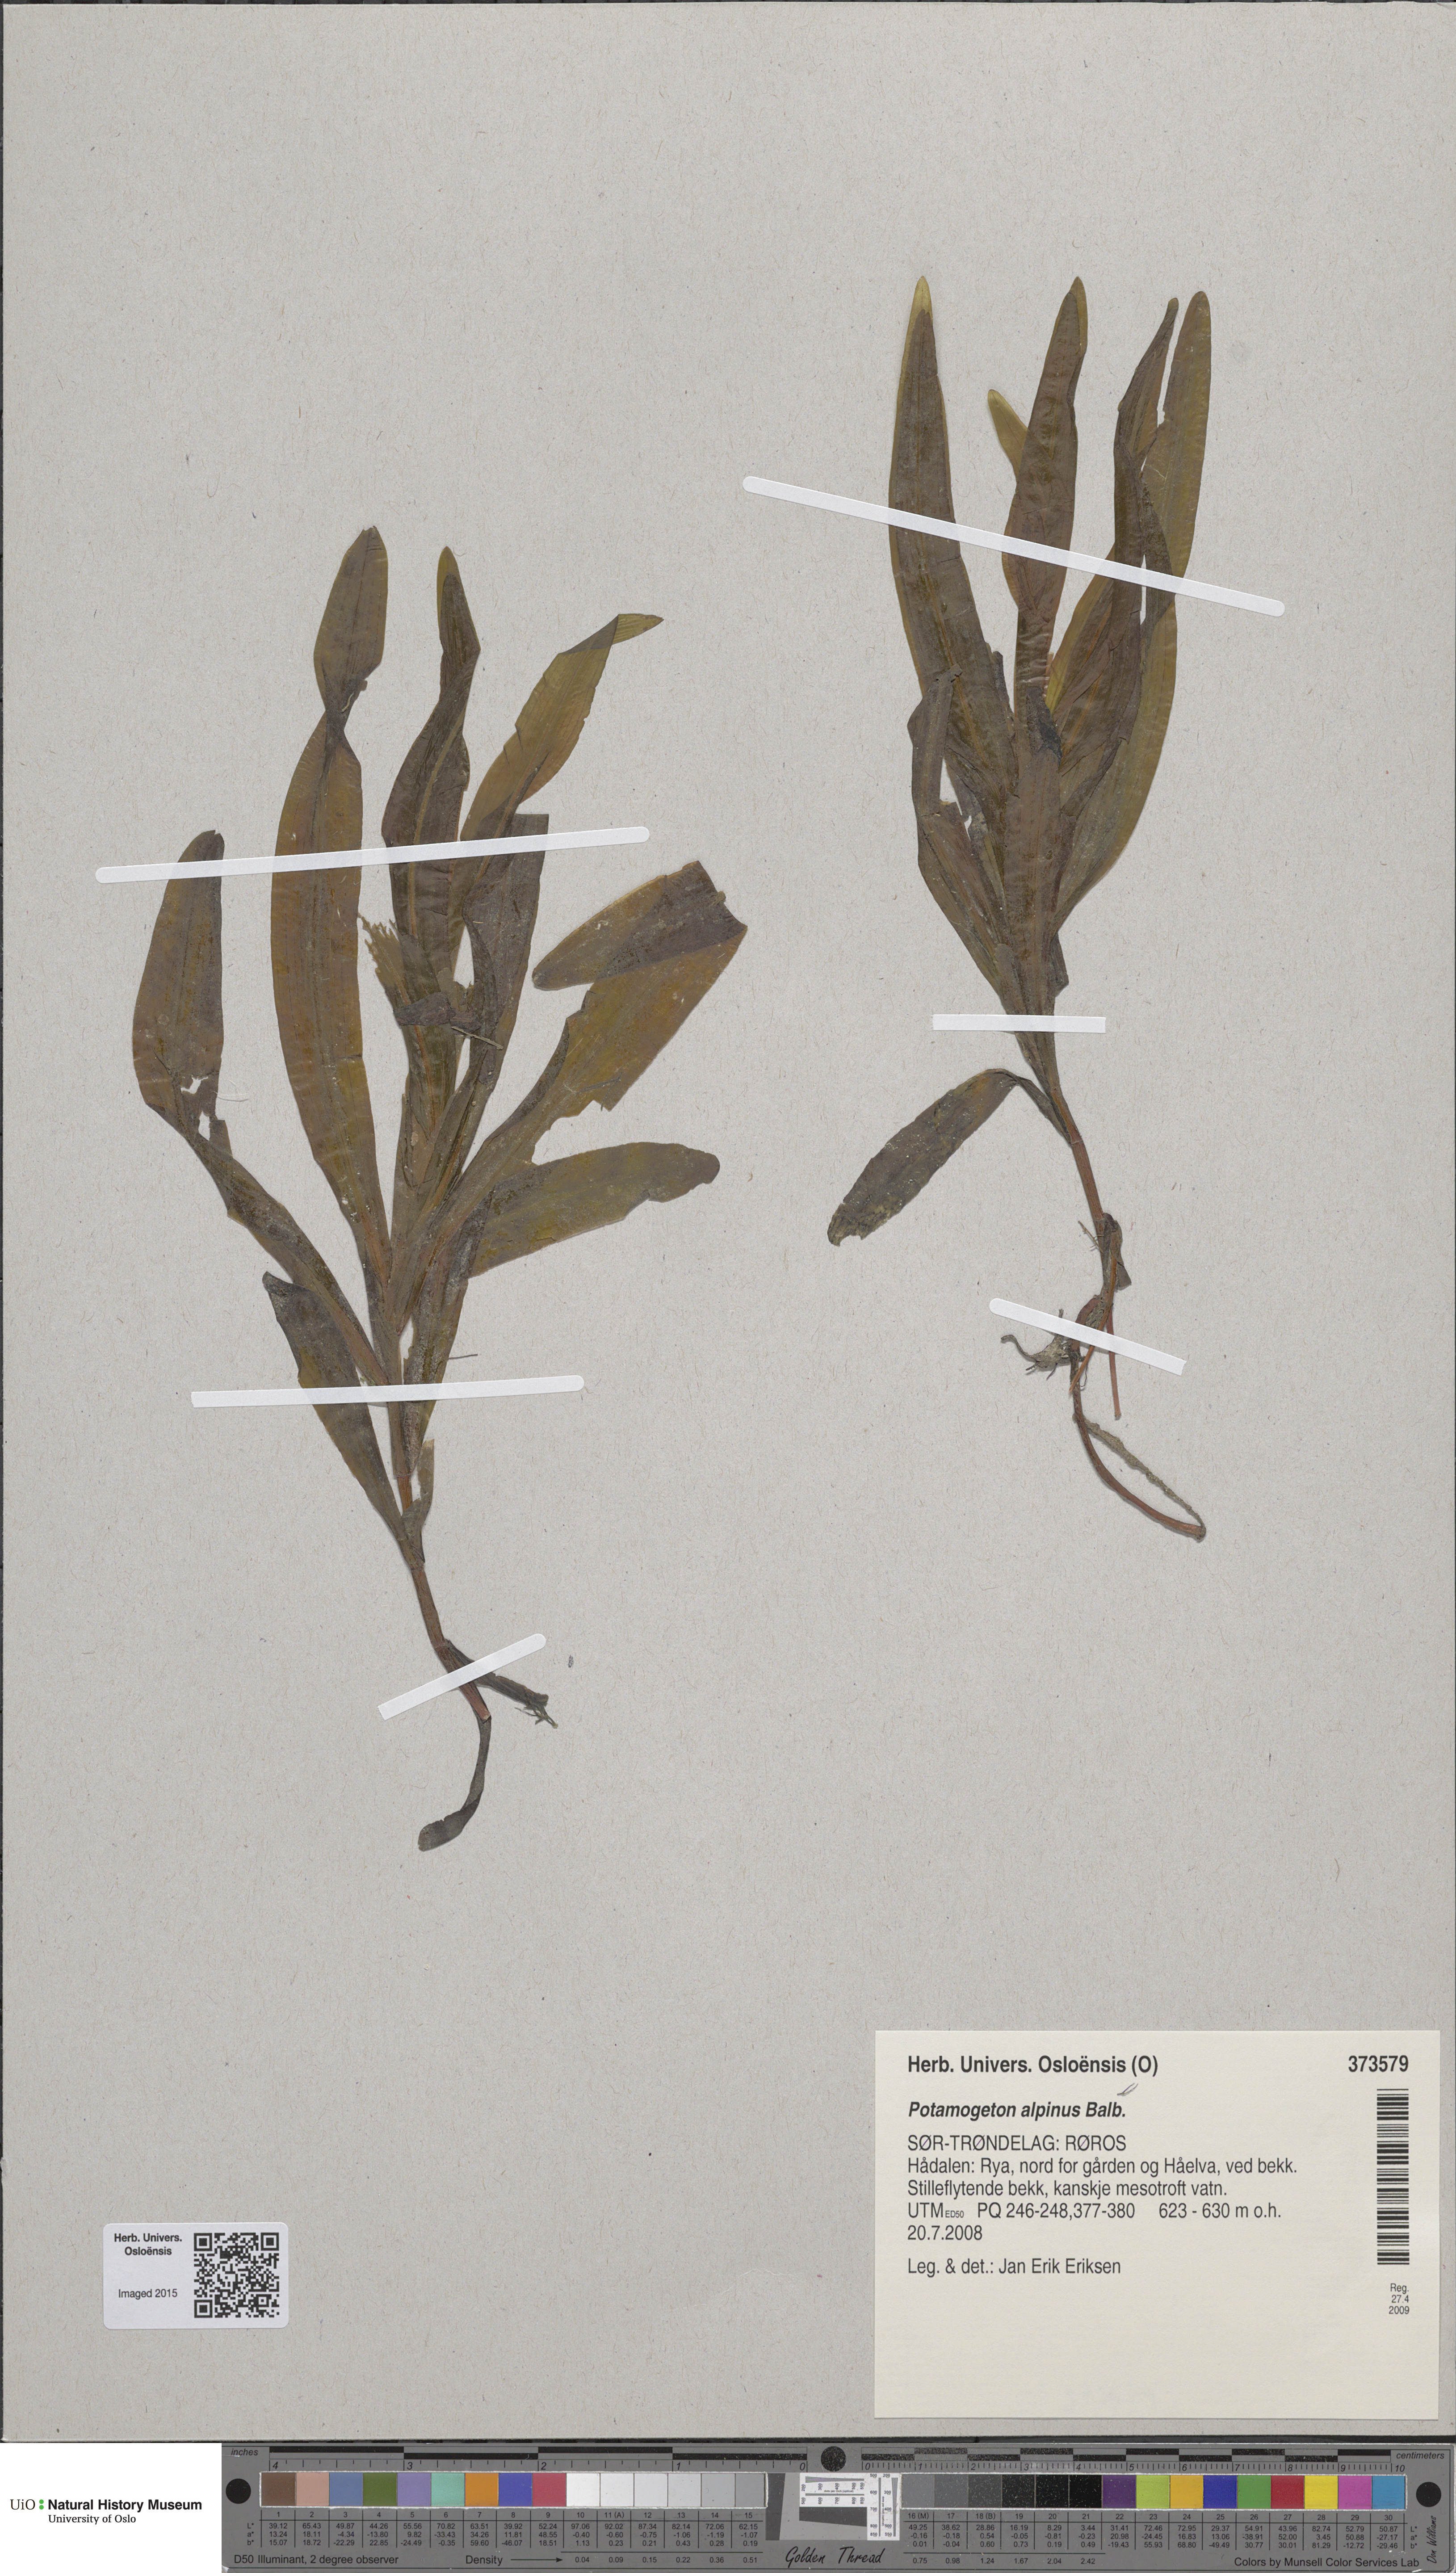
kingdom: Plantae
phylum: Tracheophyta
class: Liliopsida
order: Alismatales
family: Potamogetonaceae
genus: Potamogeton
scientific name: Potamogeton alpinus
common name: Red pondweed
